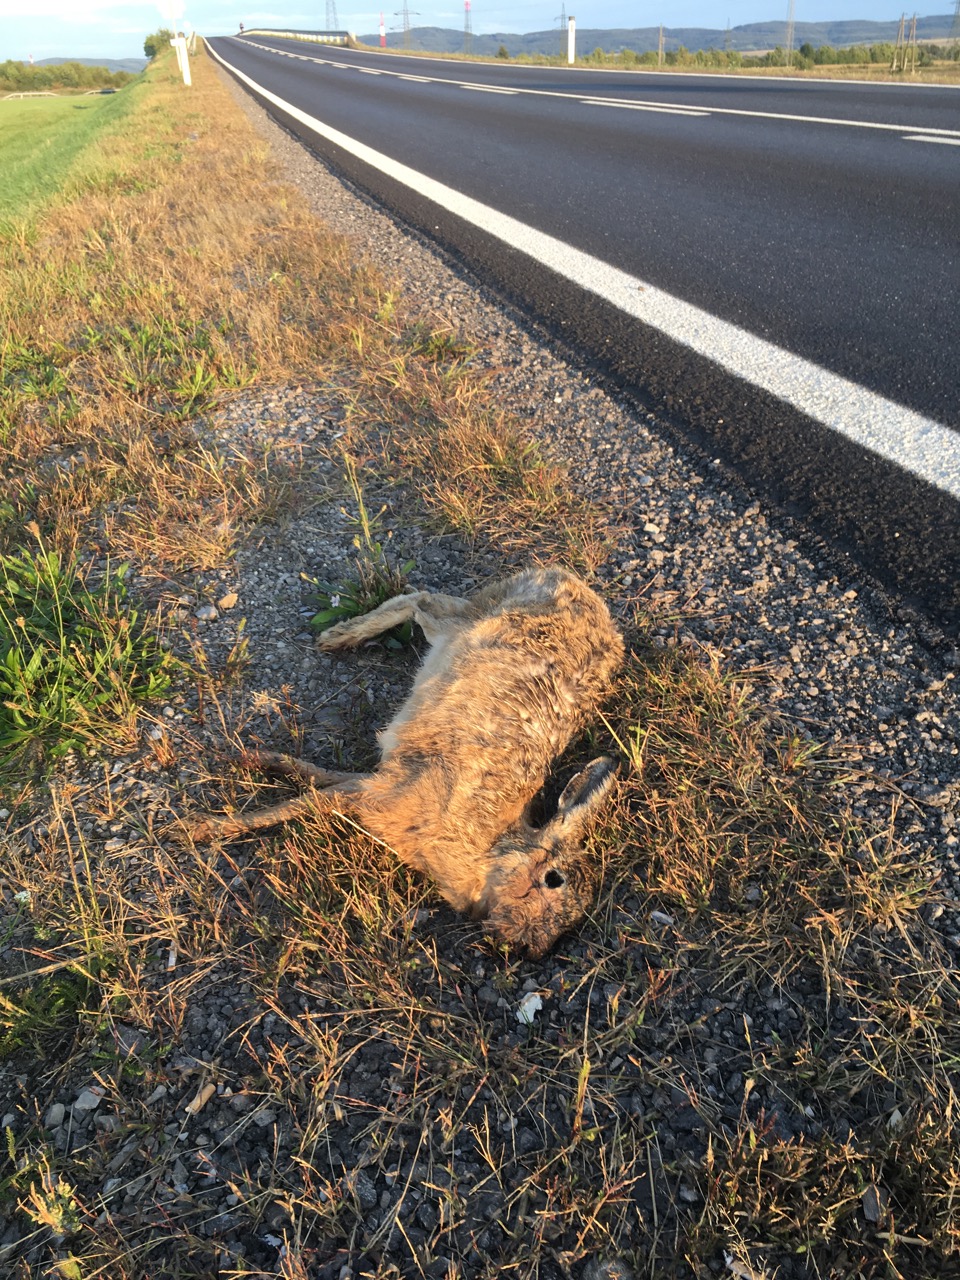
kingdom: Animalia
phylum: Chordata
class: Mammalia
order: Lagomorpha
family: Leporidae
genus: Lepus
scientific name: Lepus europaeus
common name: European hare
